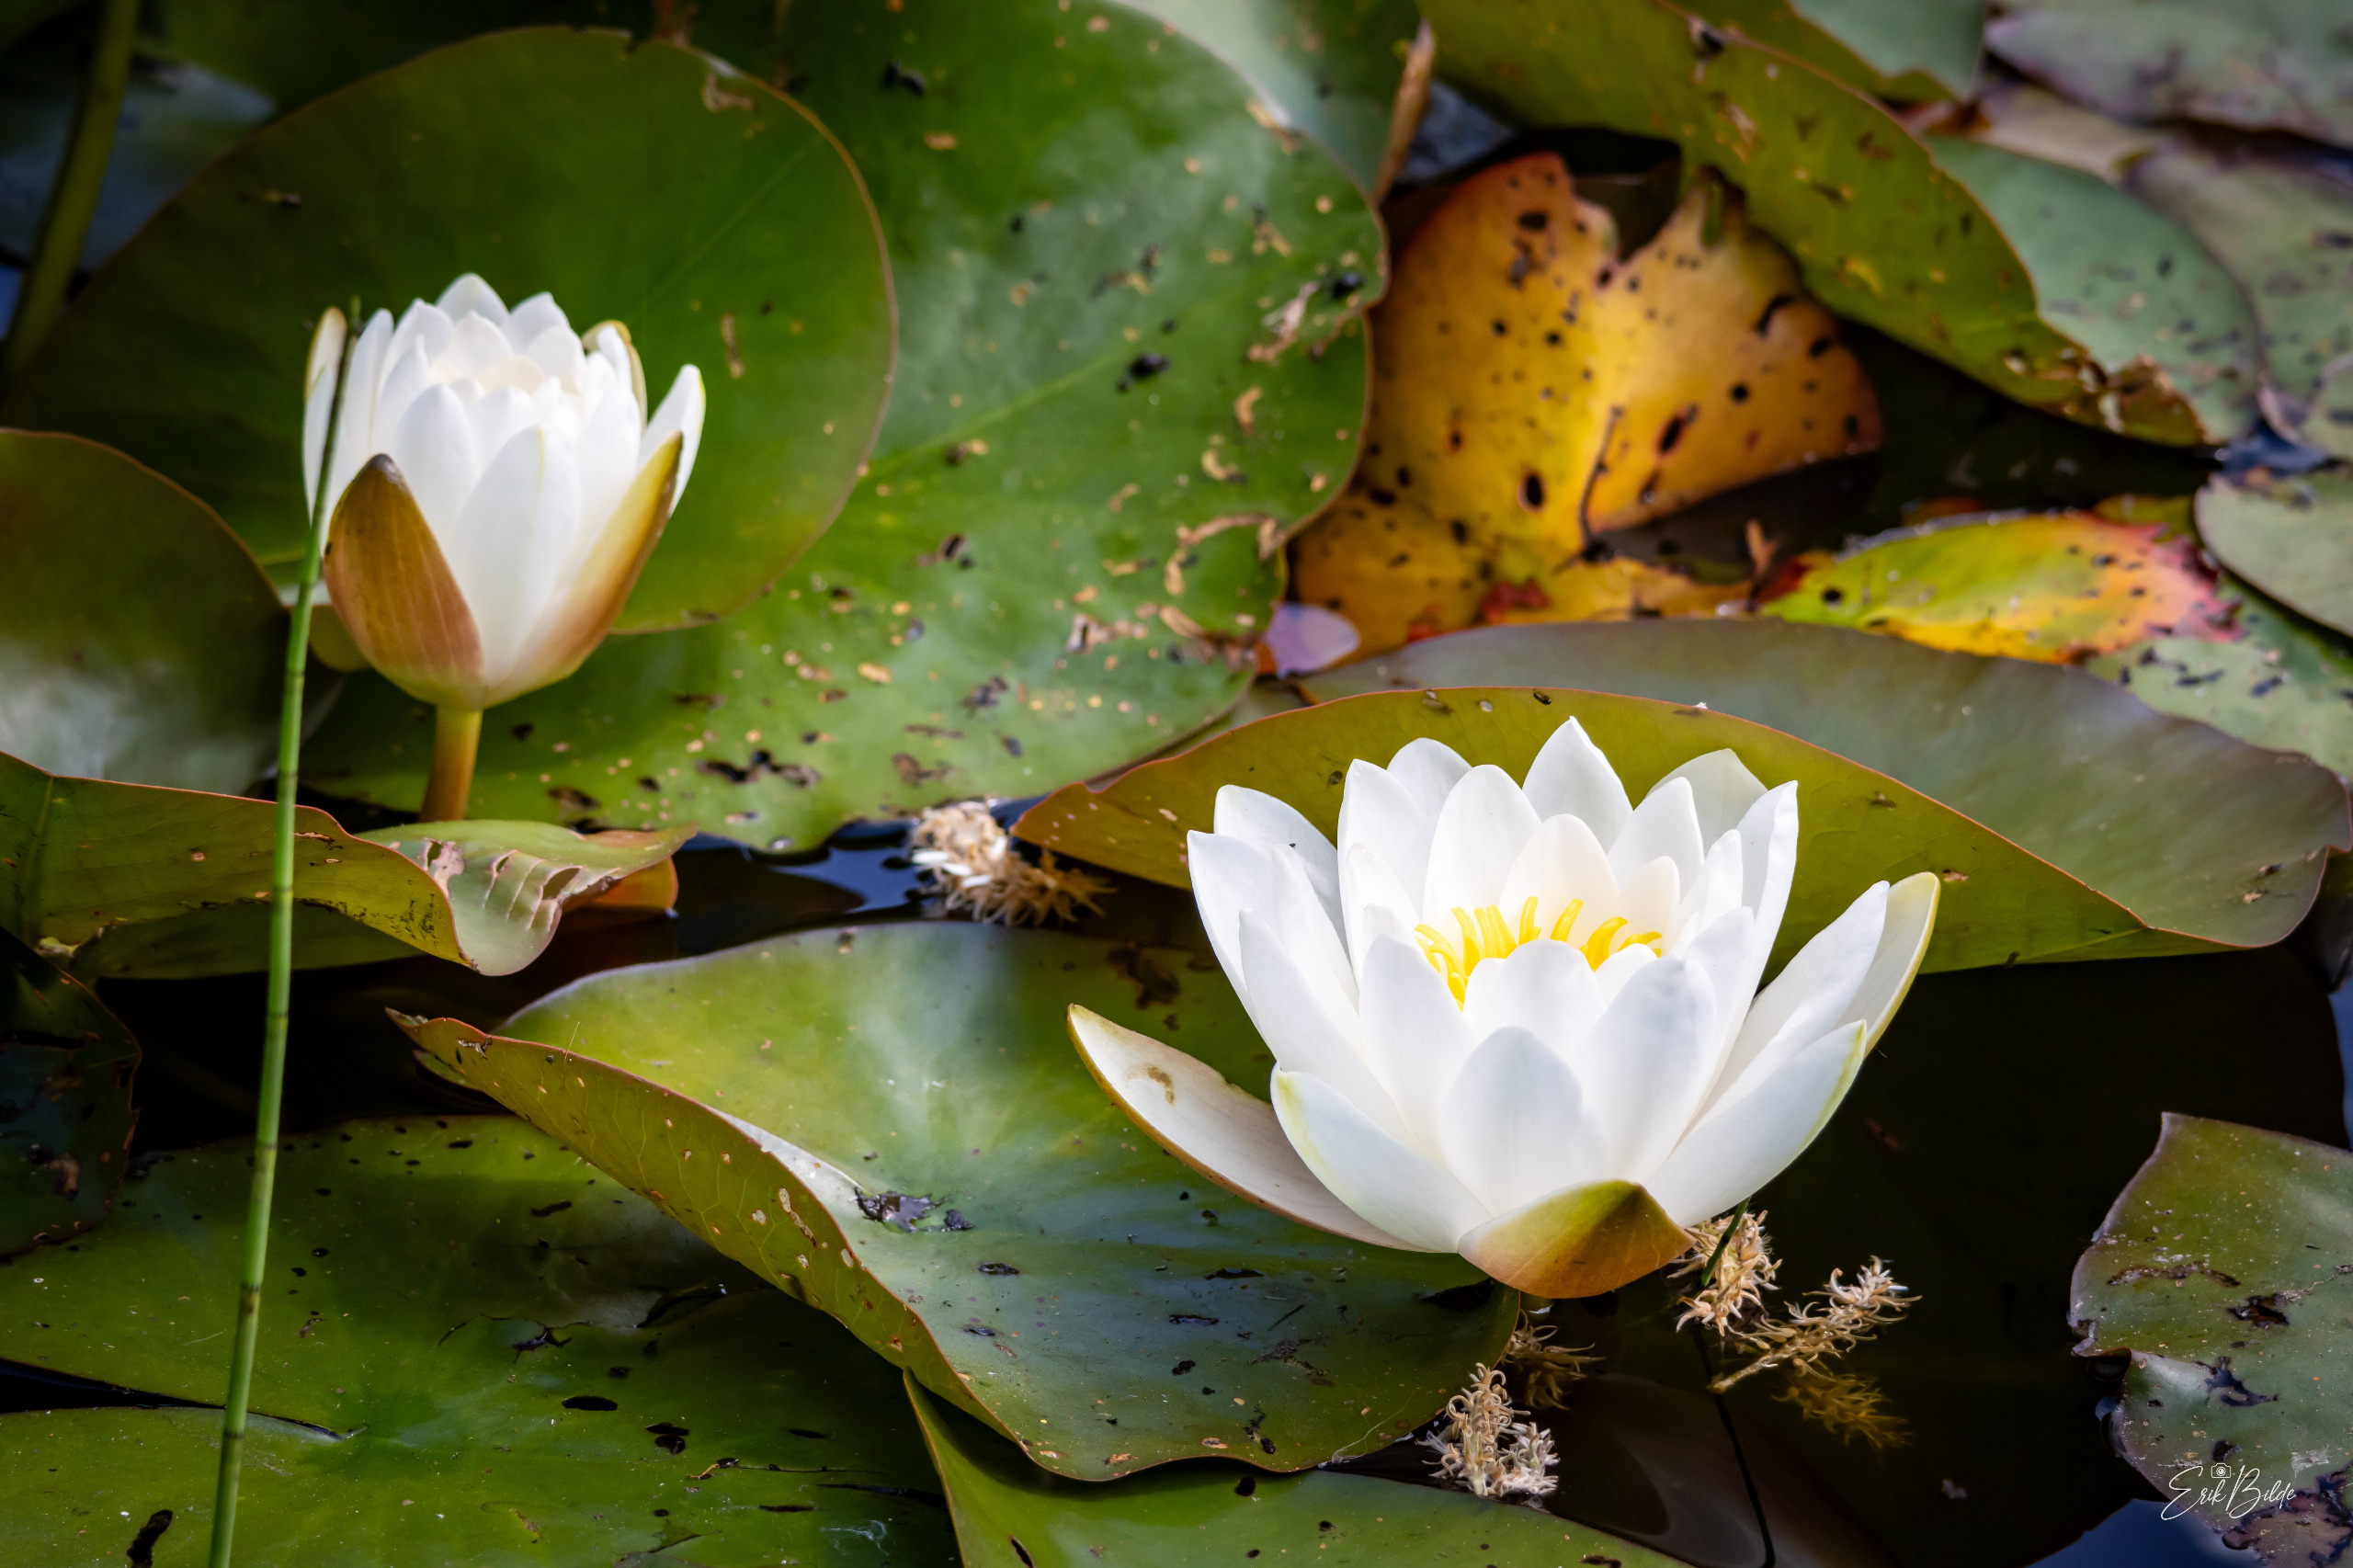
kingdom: Plantae
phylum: Tracheophyta
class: Magnoliopsida
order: Nymphaeales
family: Nymphaeaceae
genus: Nymphaea
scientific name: Nymphaea alba
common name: Hvid åkande
